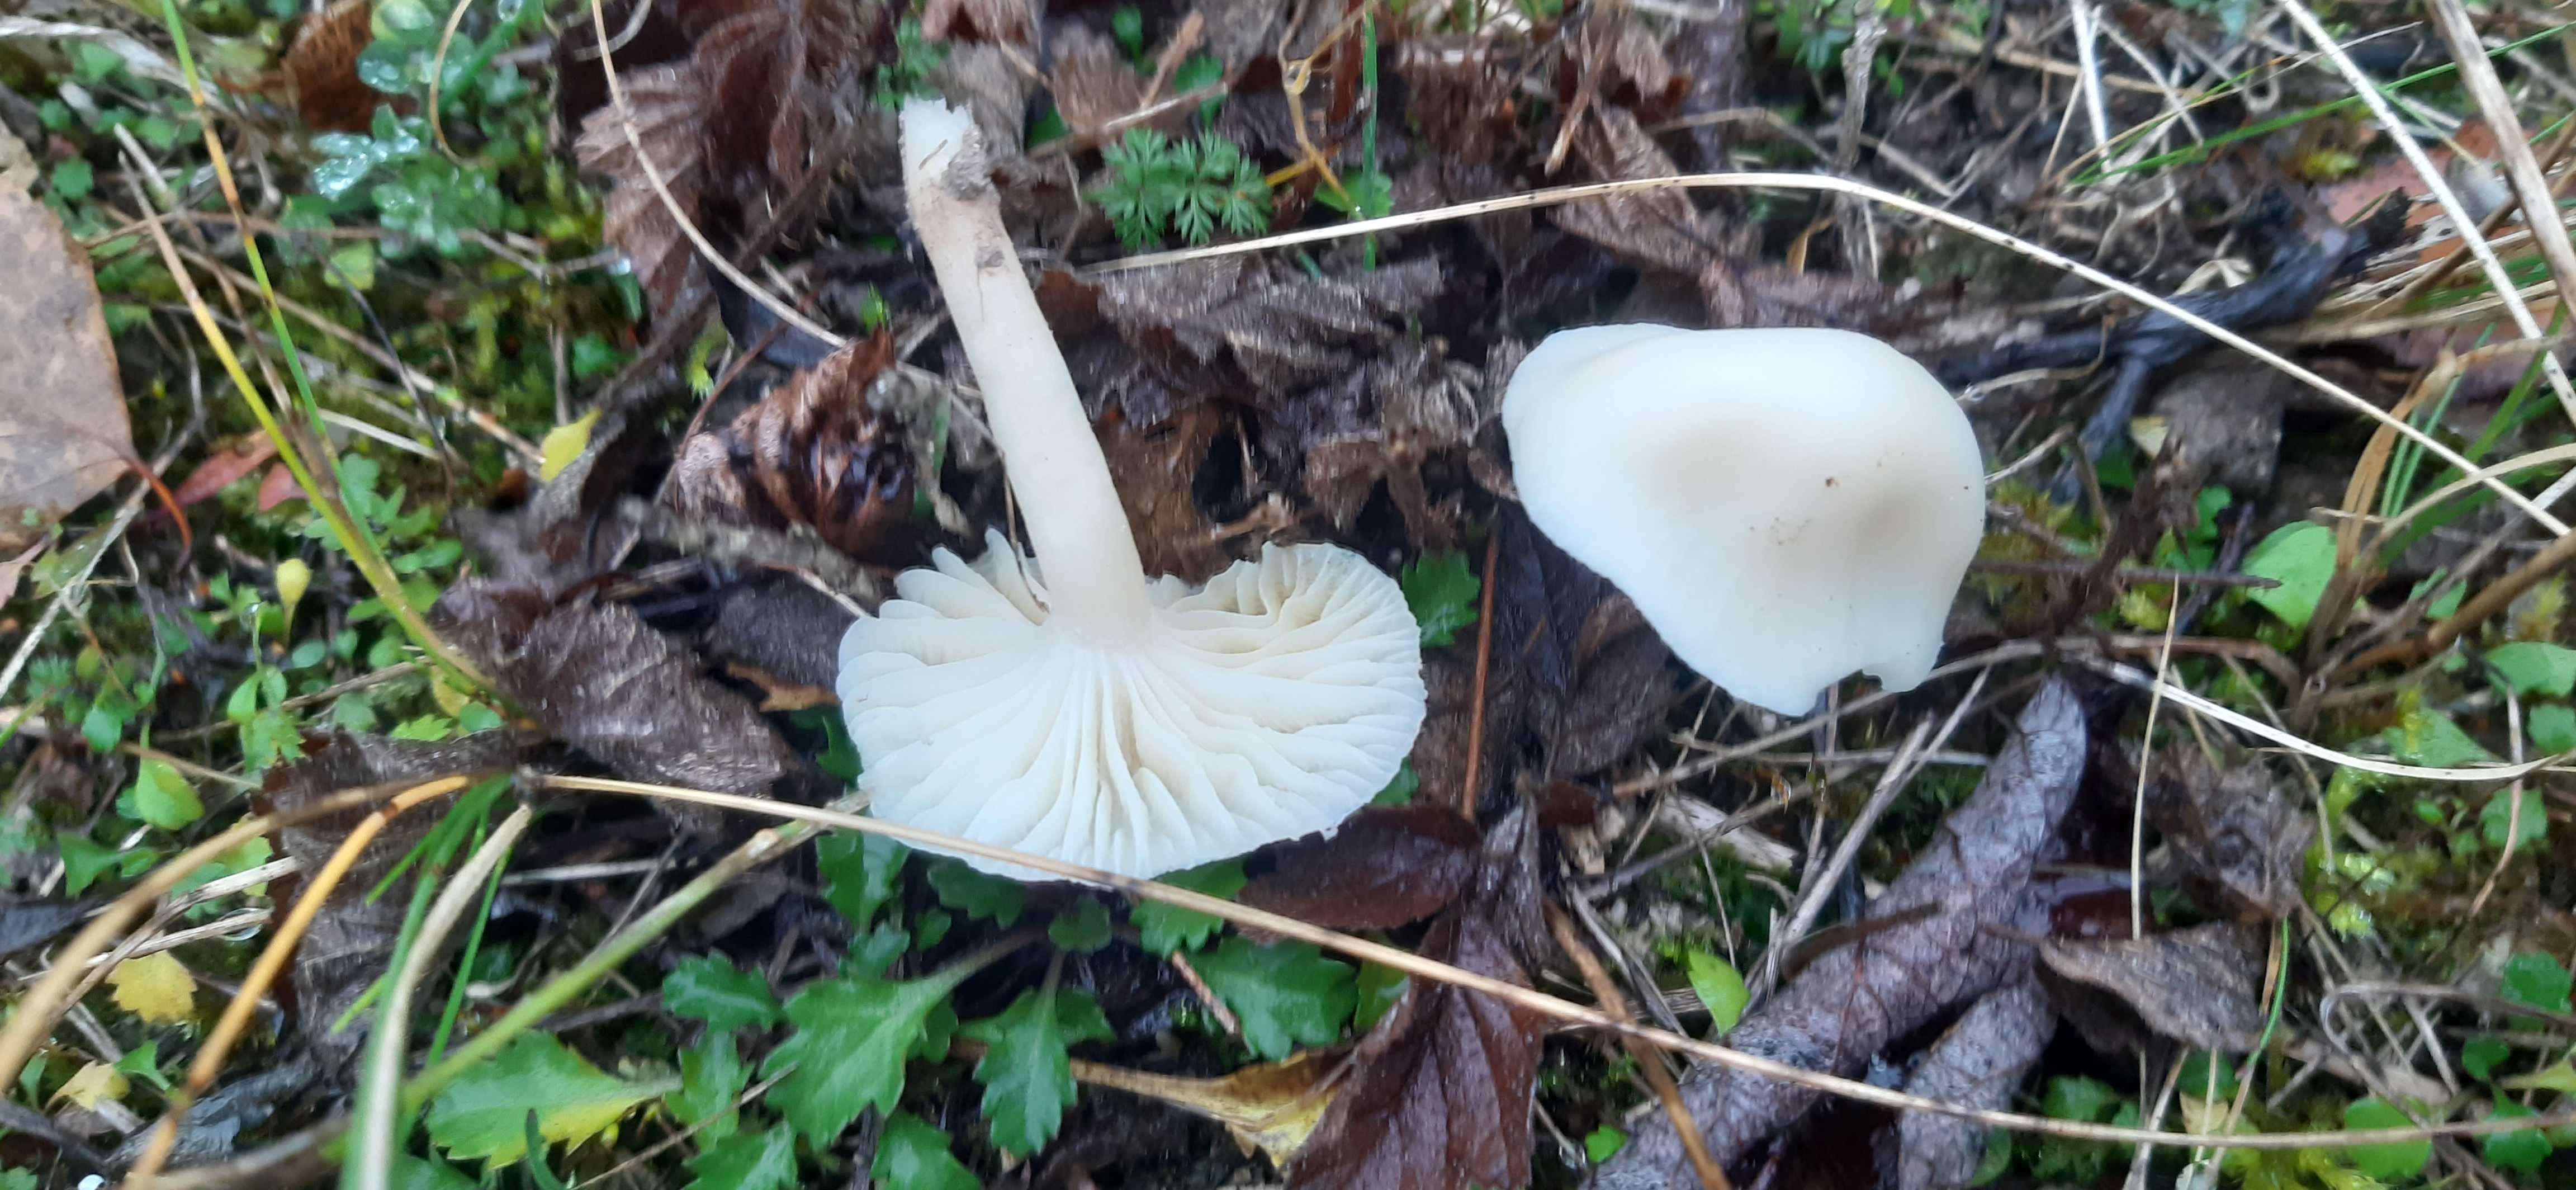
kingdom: Fungi
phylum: Basidiomycota
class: Agaricomycetes
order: Agaricales
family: Hygrophoraceae
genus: Cuphophyllus
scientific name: Cuphophyllus virgineus
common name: snehvid vokshat
